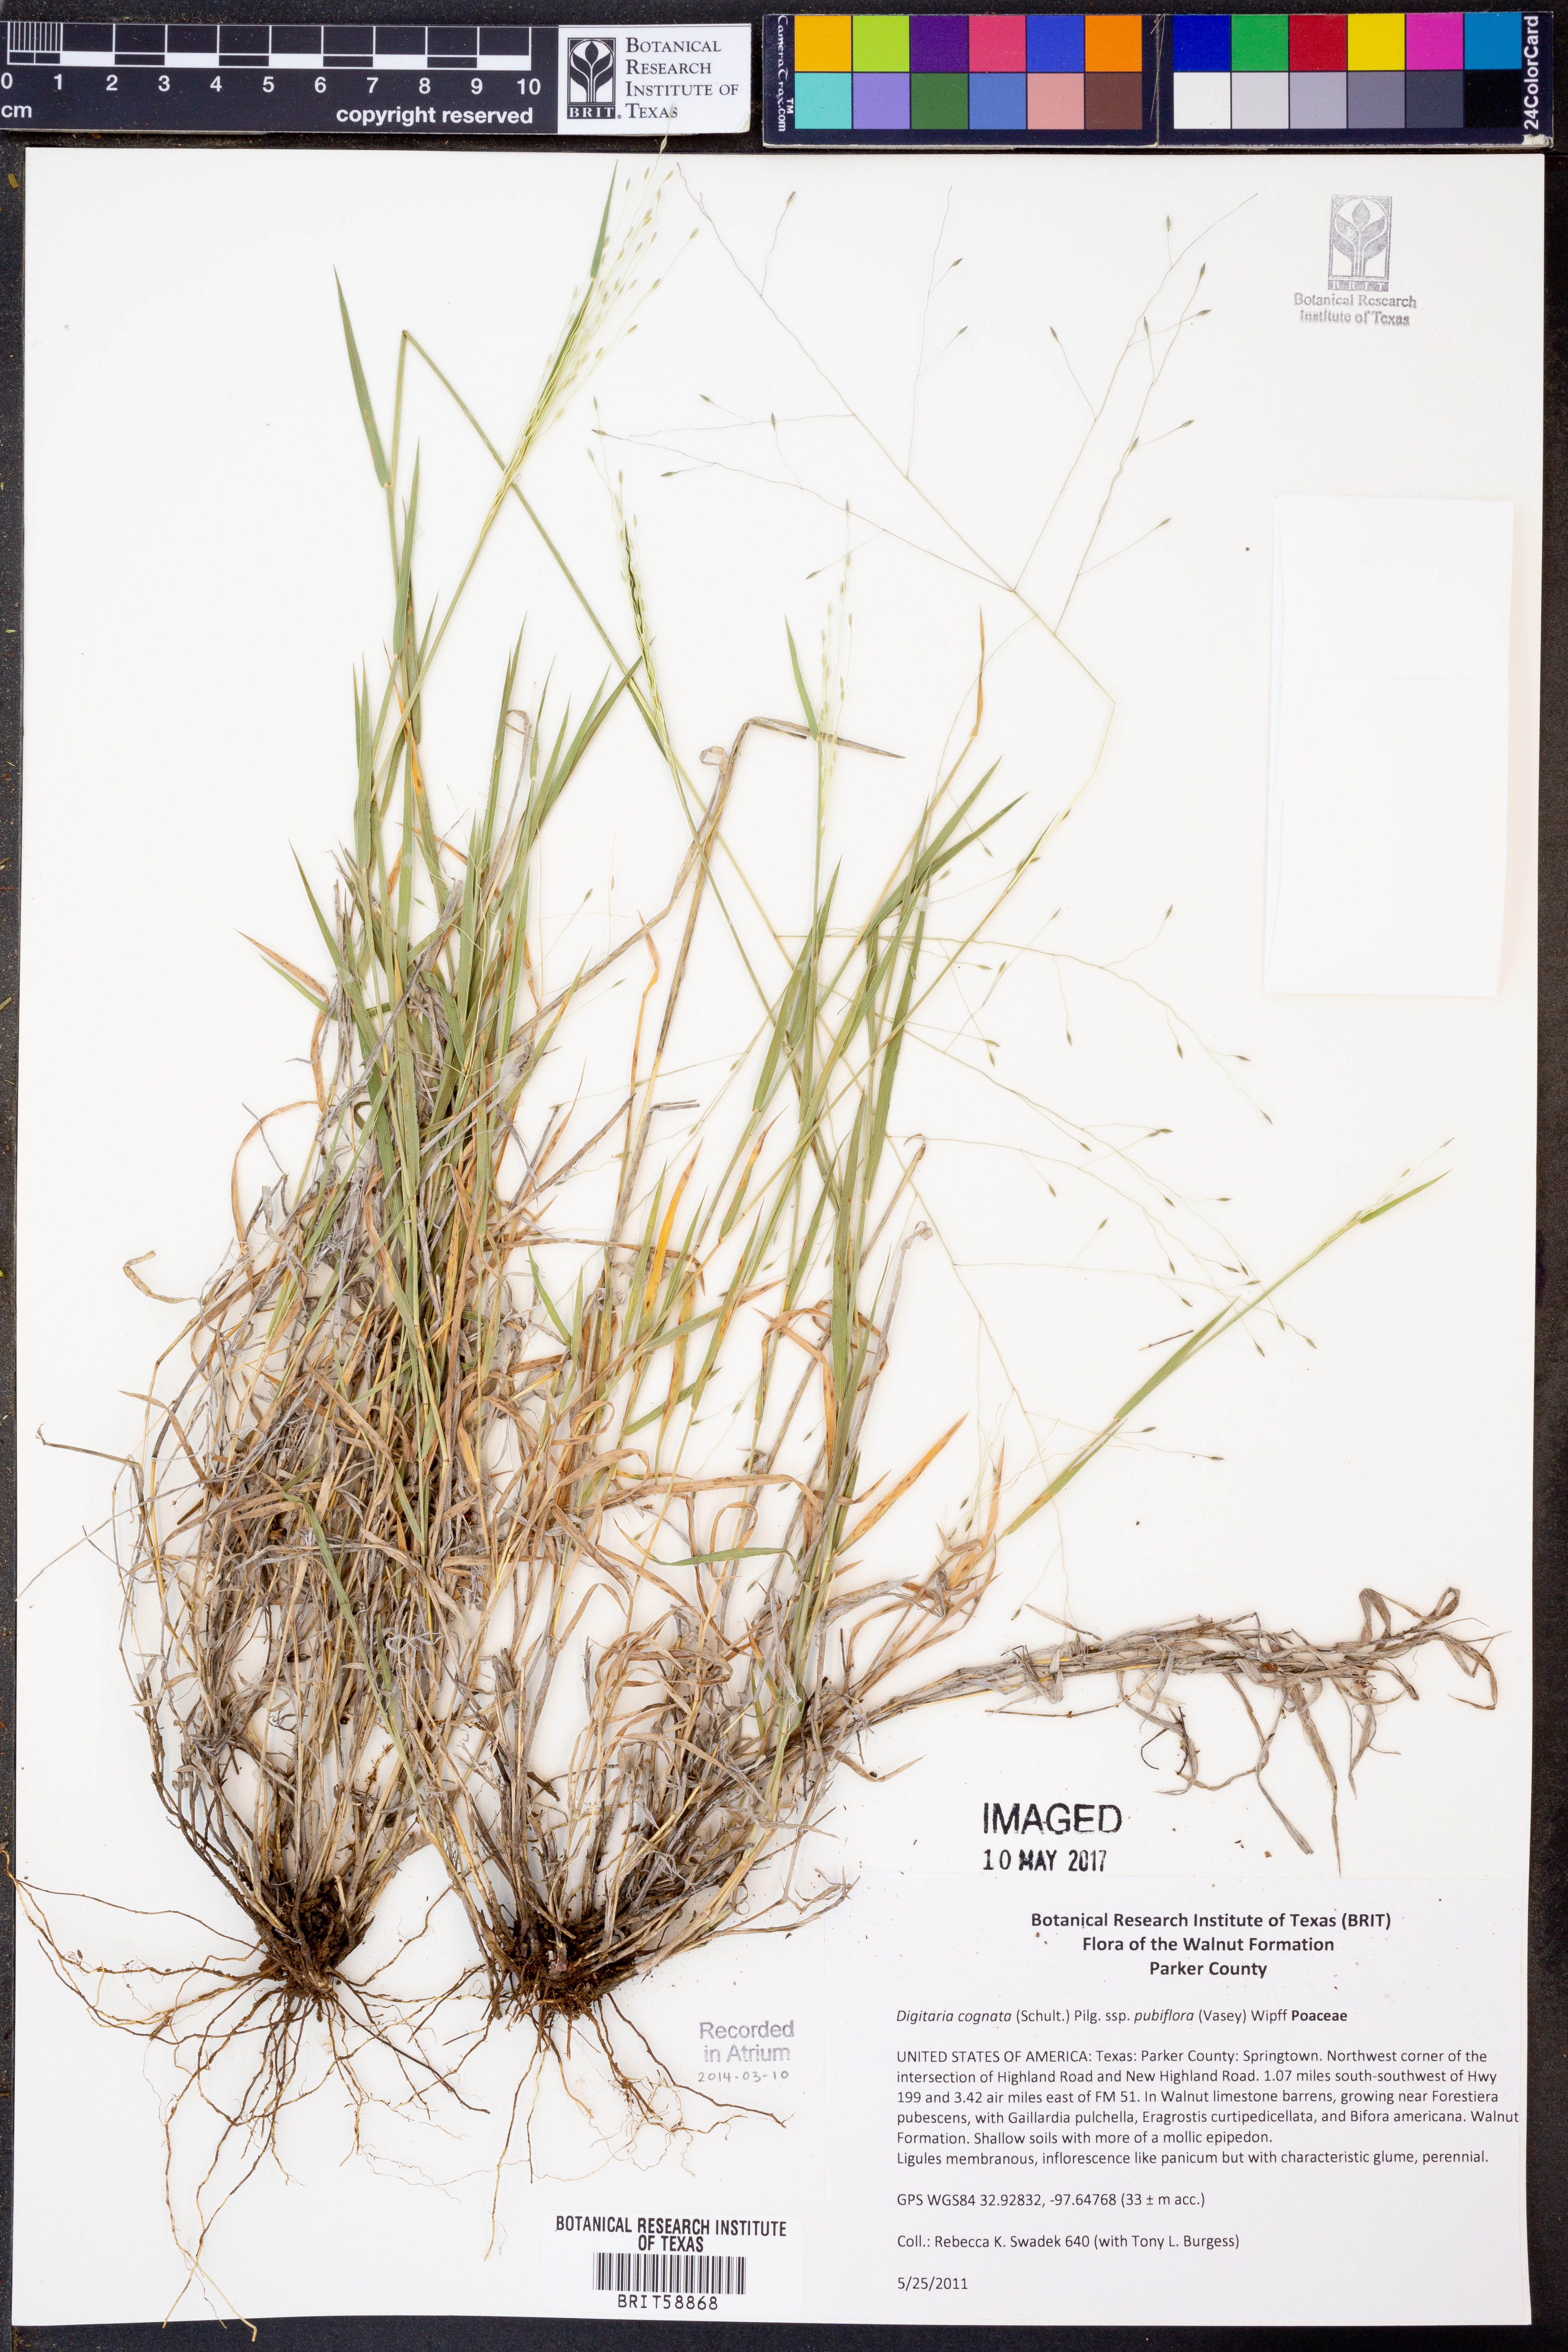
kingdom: Plantae
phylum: Tracheophyta
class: Liliopsida
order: Poales
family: Poaceae
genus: Digitaria
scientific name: Digitaria cognata
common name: Fall witchgrass
